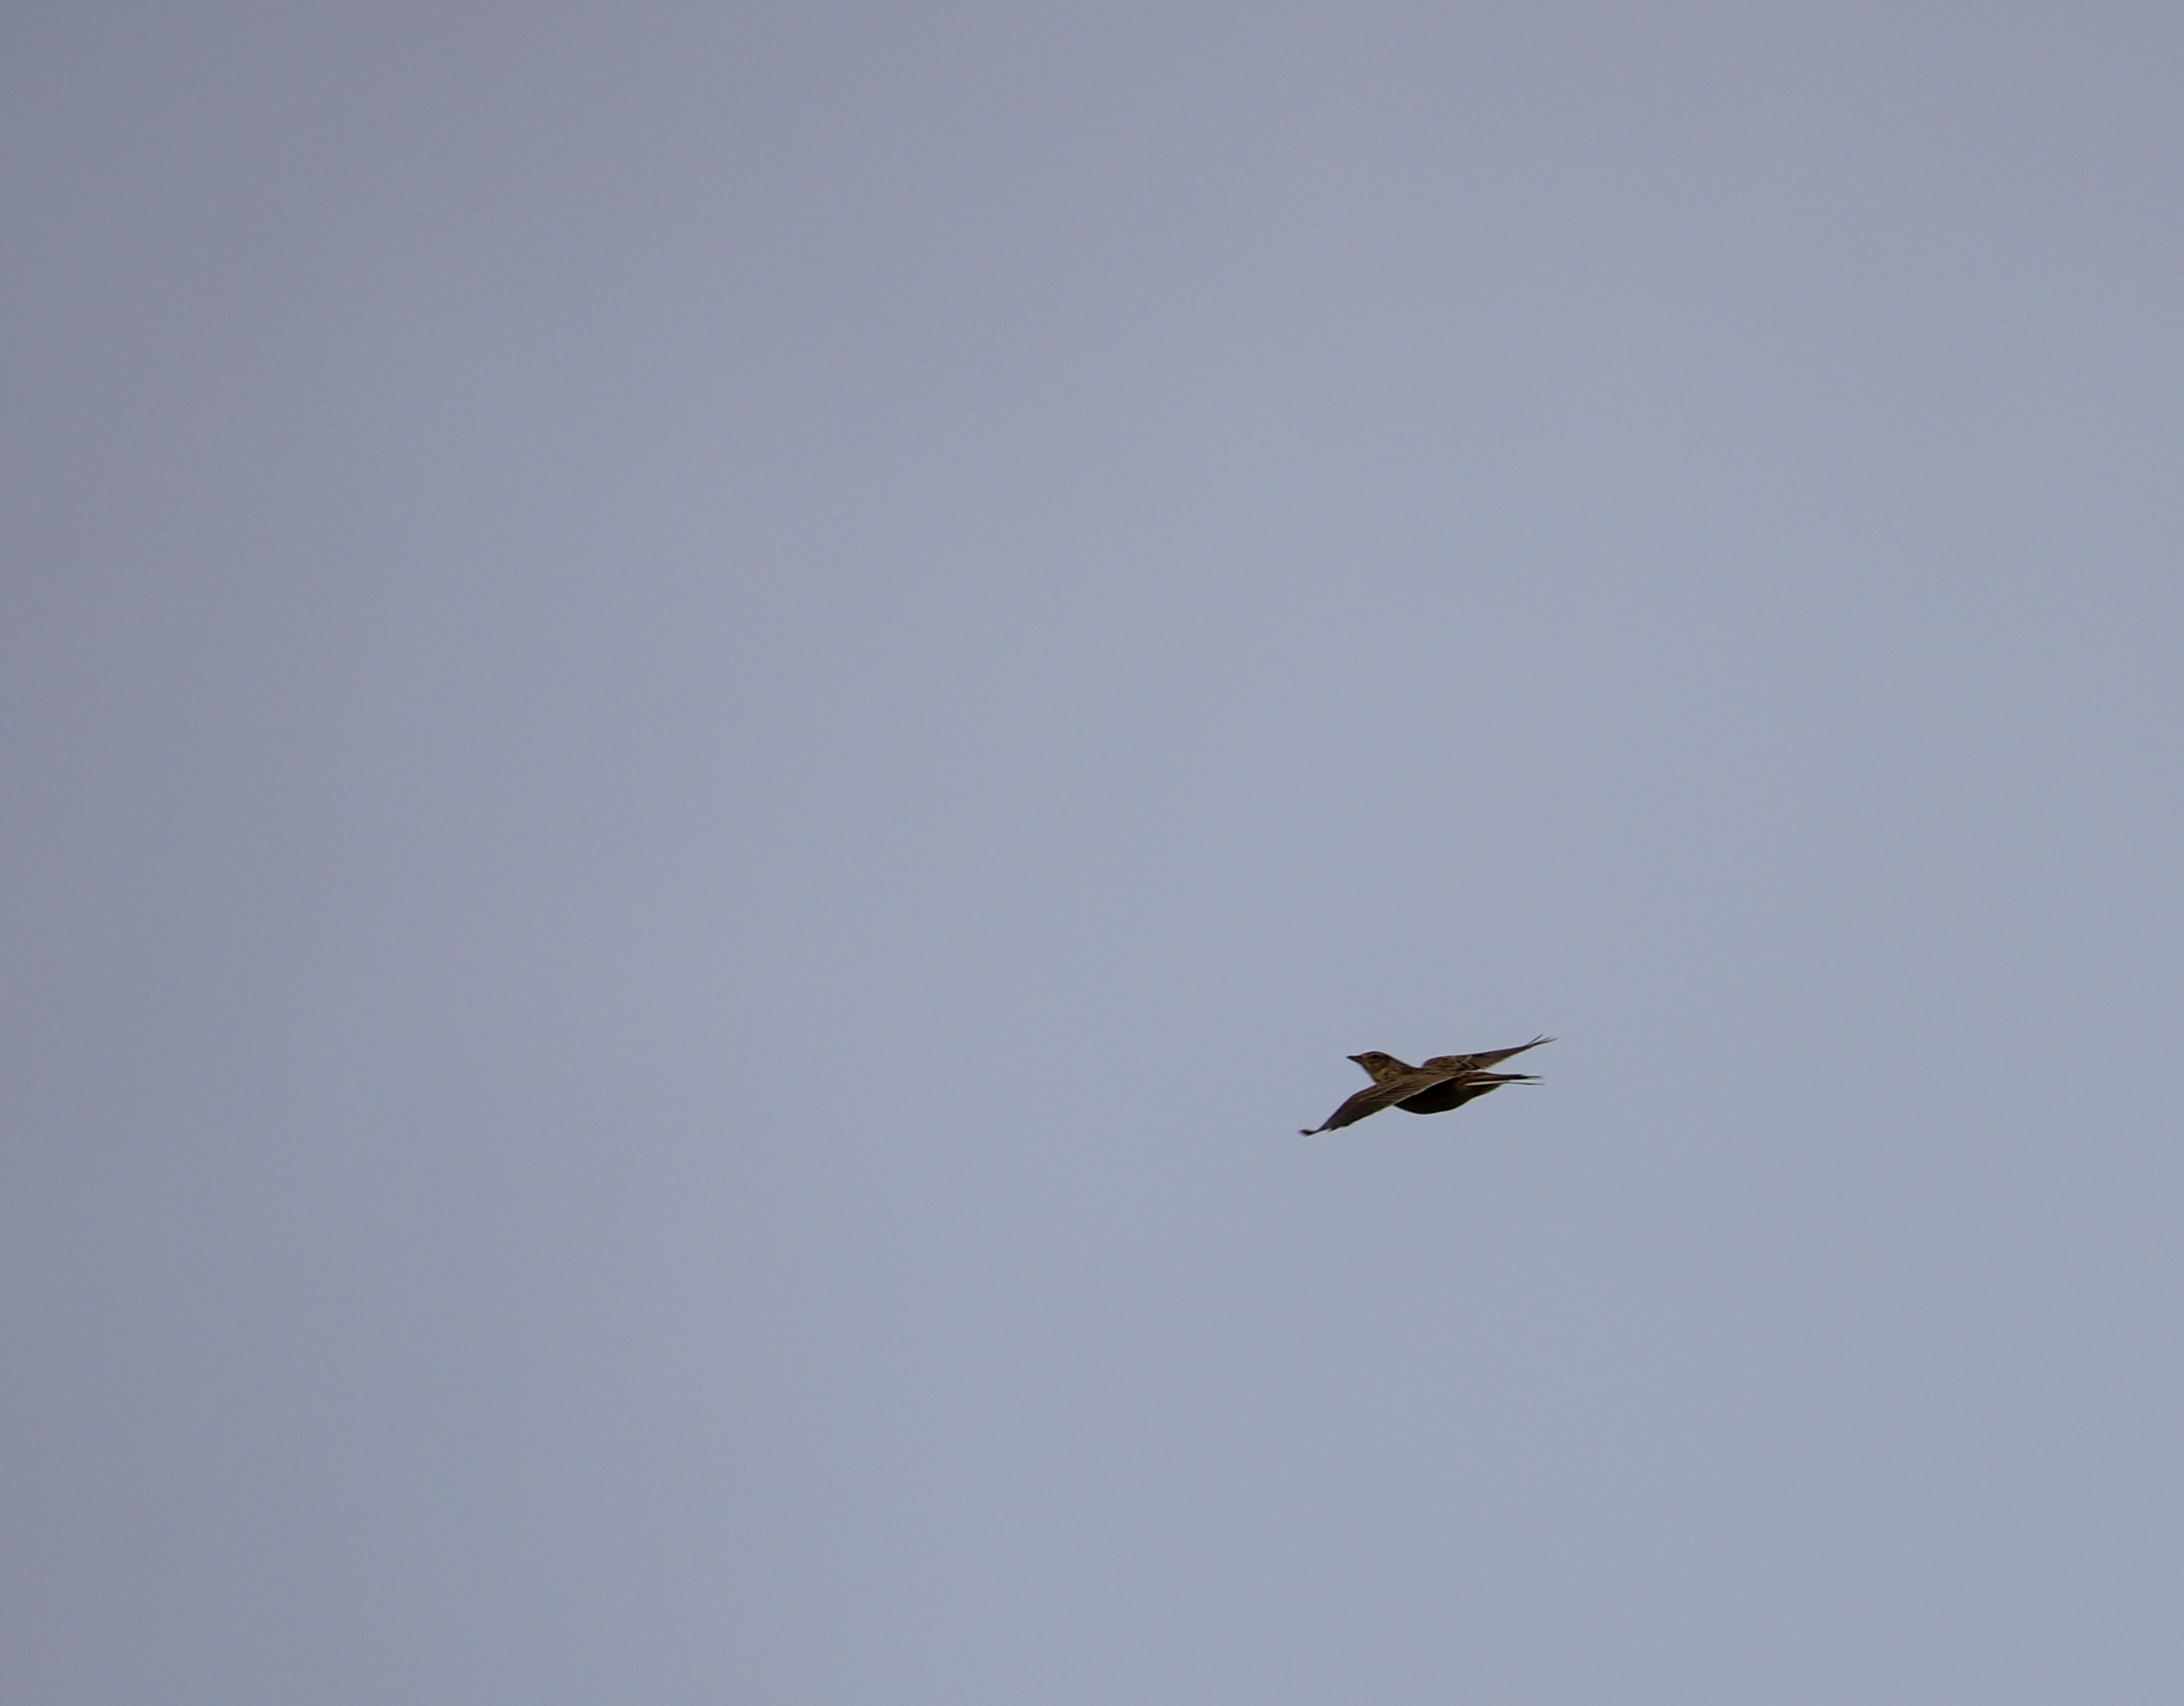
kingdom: Animalia
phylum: Chordata
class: Aves
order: Passeriformes
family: Alaudidae
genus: Alauda
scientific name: Alauda arvensis
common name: Sanglærke
